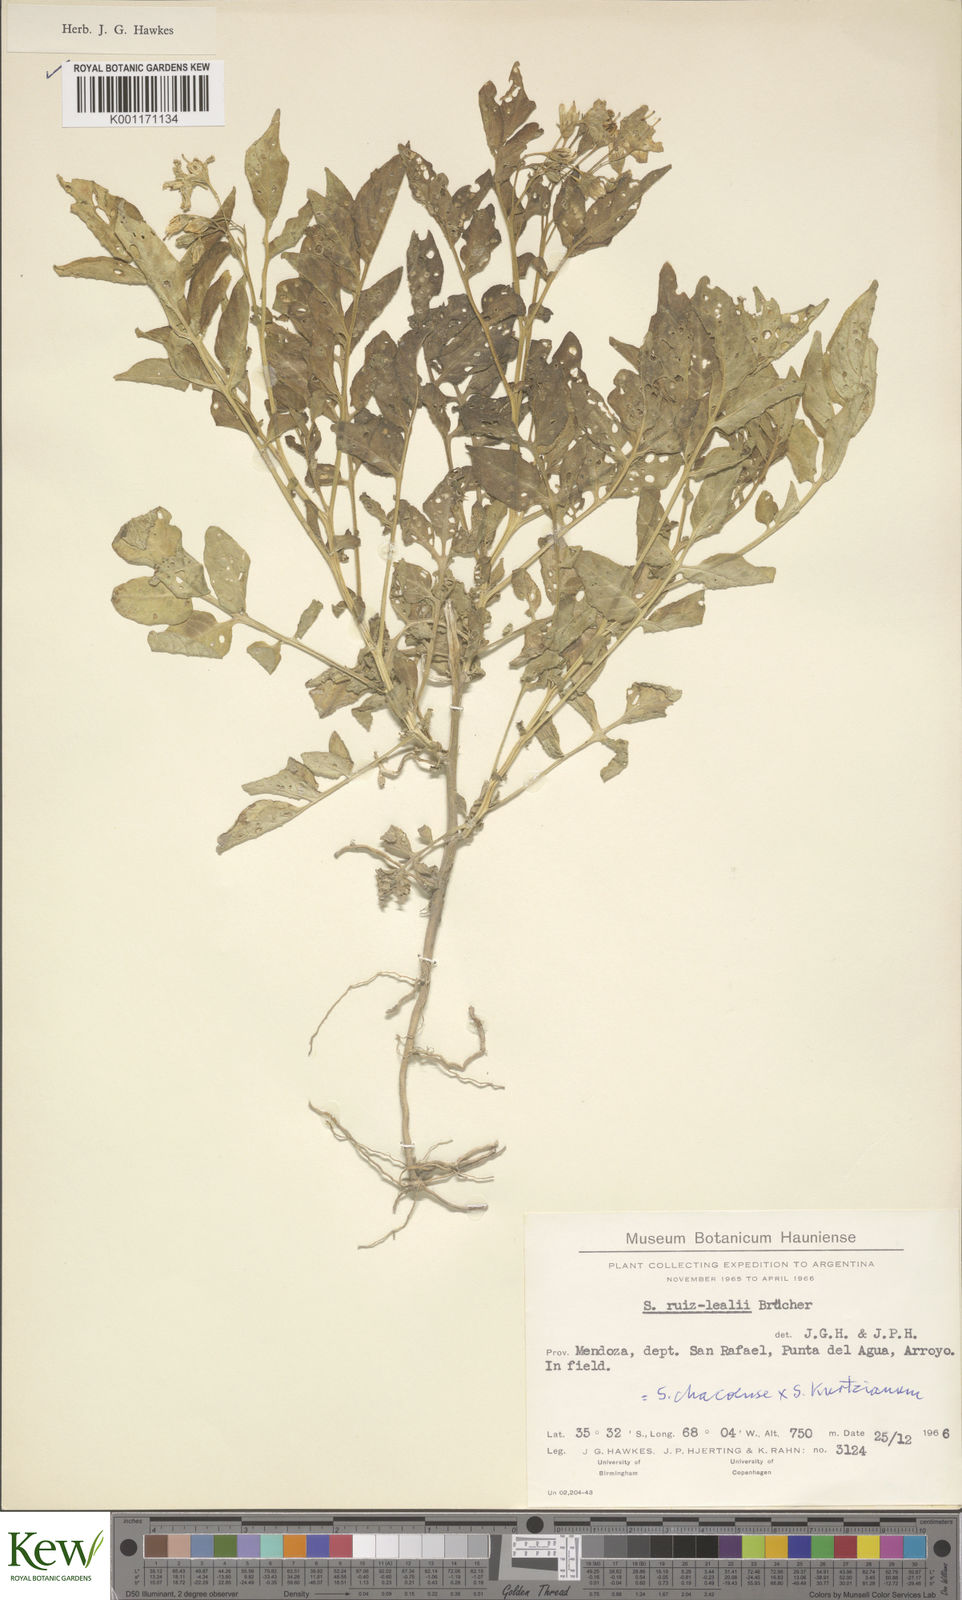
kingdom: Plantae
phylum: Tracheophyta
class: Magnoliopsida
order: Solanales
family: Solanaceae
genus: Solanum
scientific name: Solanum chacoense
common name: Chaco potato
